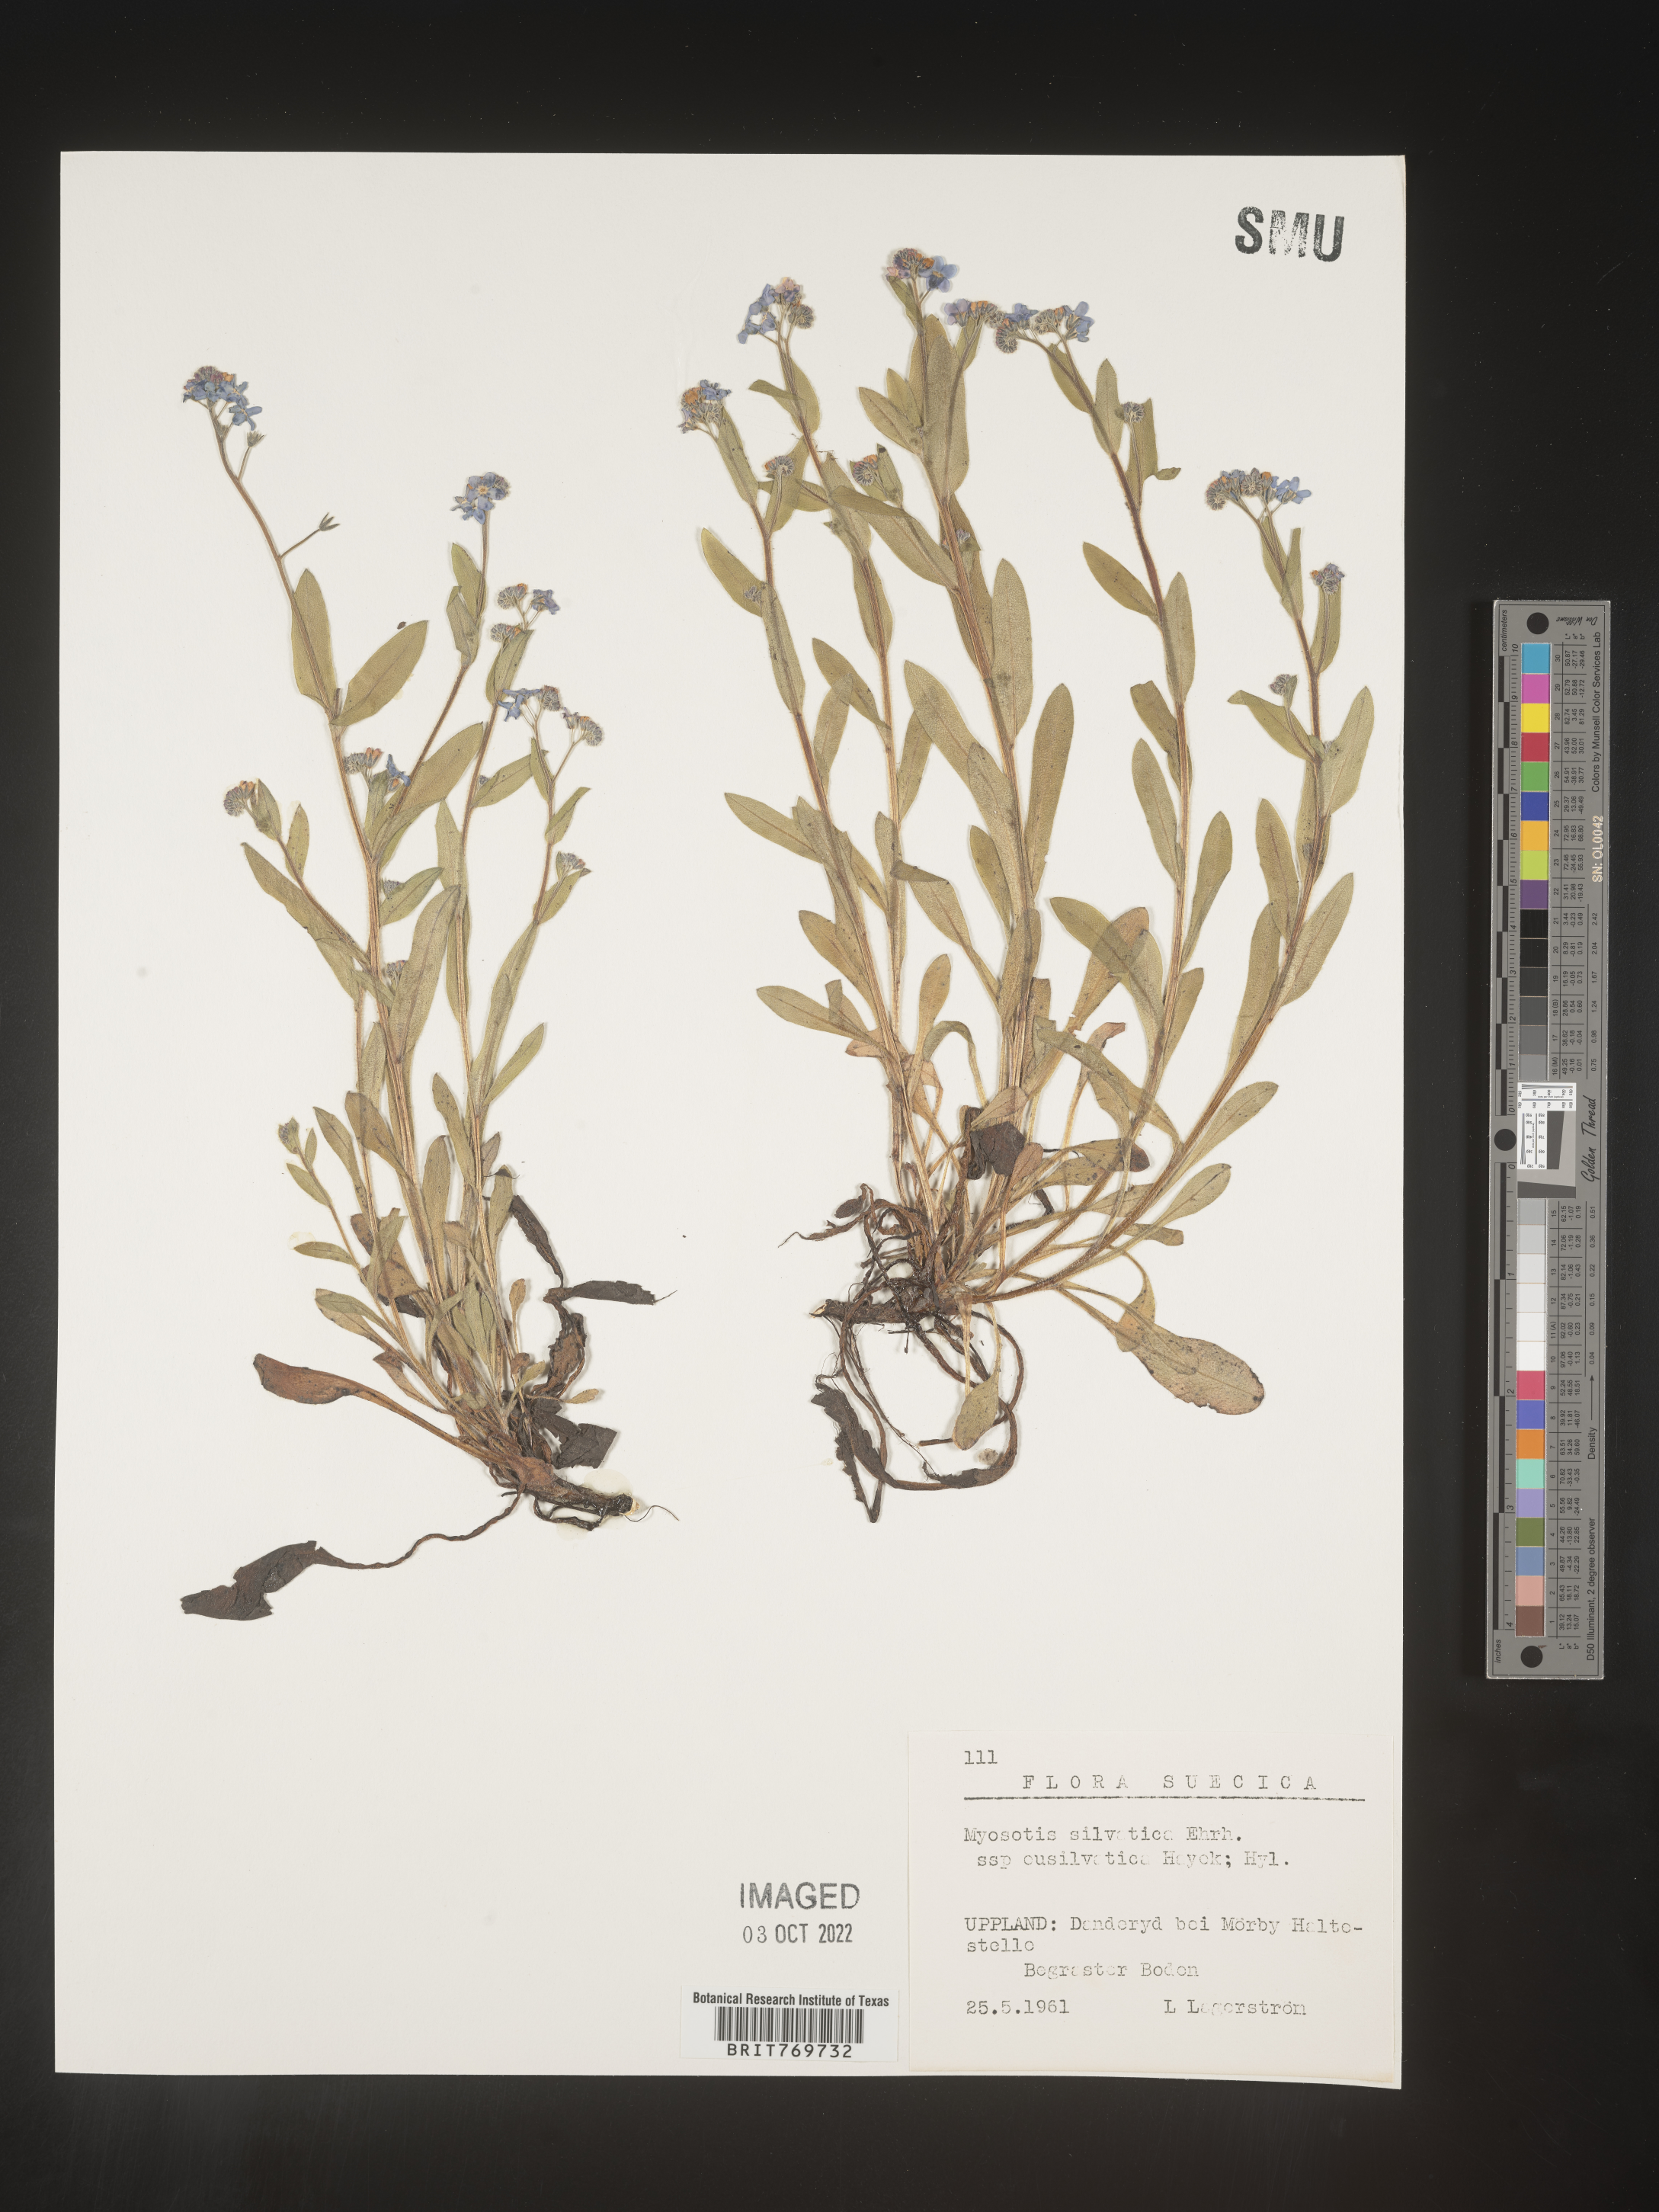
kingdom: Plantae
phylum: Tracheophyta
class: Magnoliopsida
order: Boraginales
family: Boraginaceae
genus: Myosotis
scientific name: Myosotis
